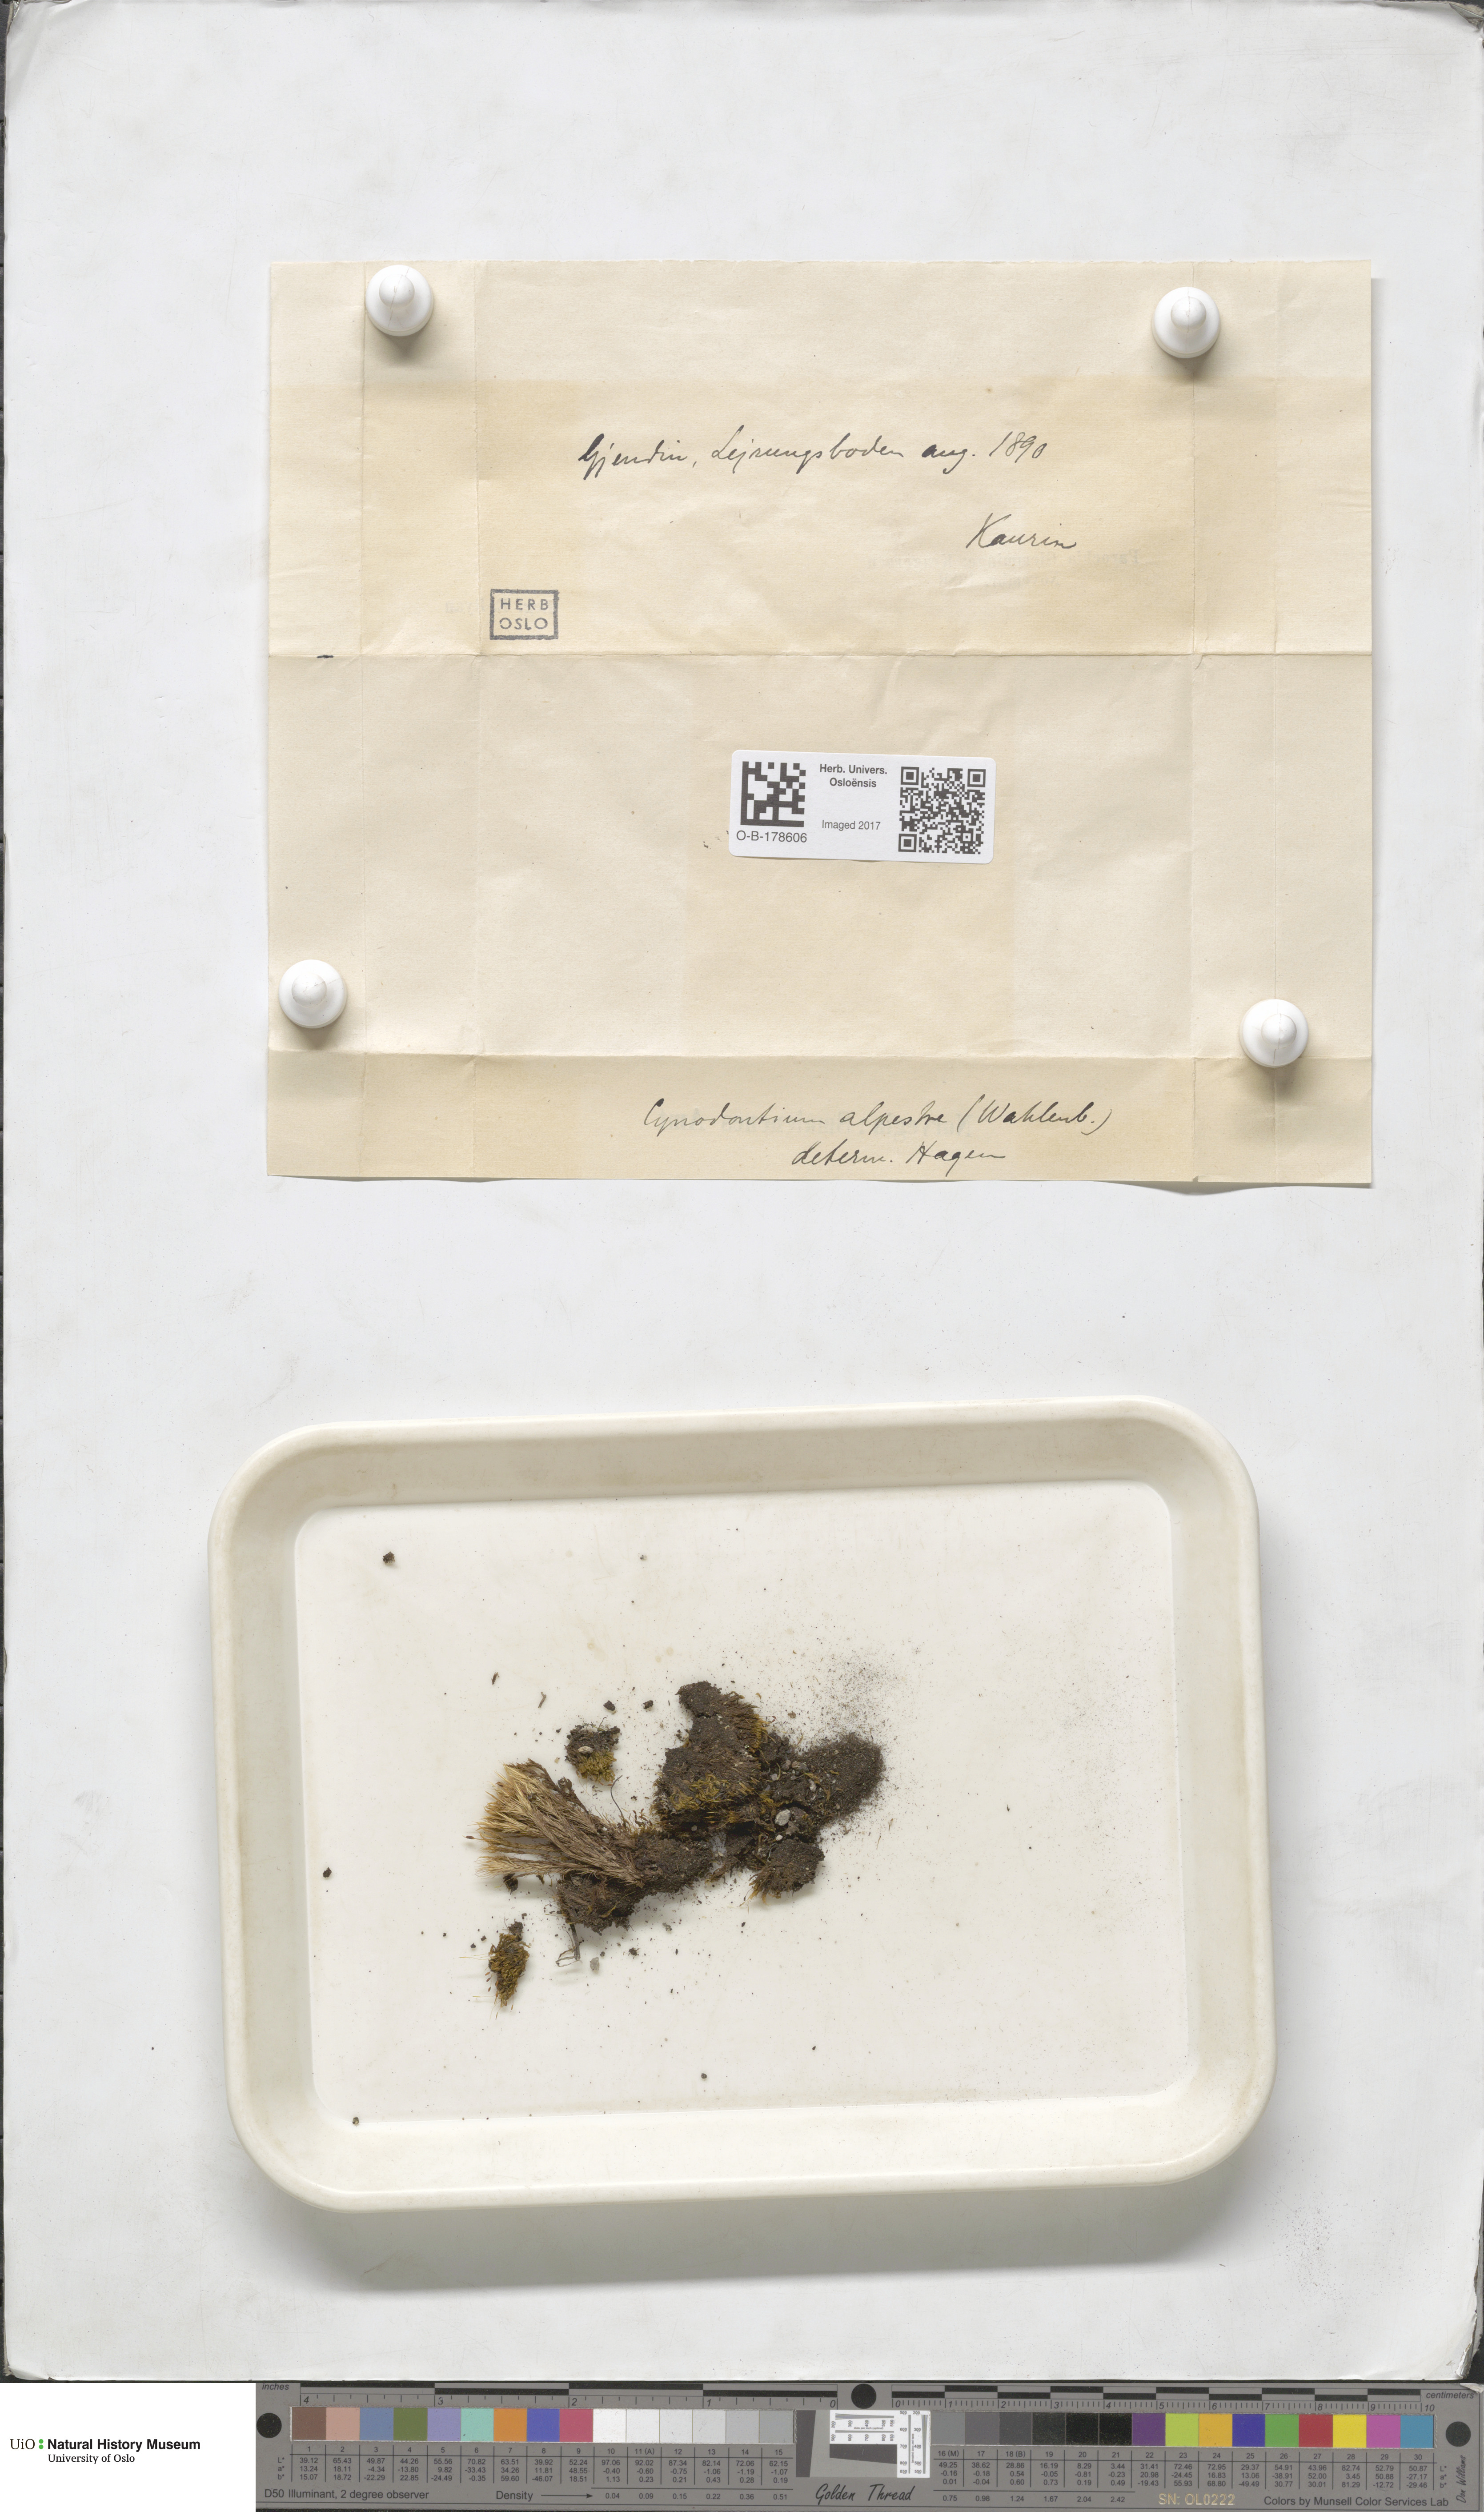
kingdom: Plantae
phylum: Bryophyta
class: Bryopsida
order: Dicranales
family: Rhabdoweisiaceae
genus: Cnestrum
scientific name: Cnestrum alpestre
